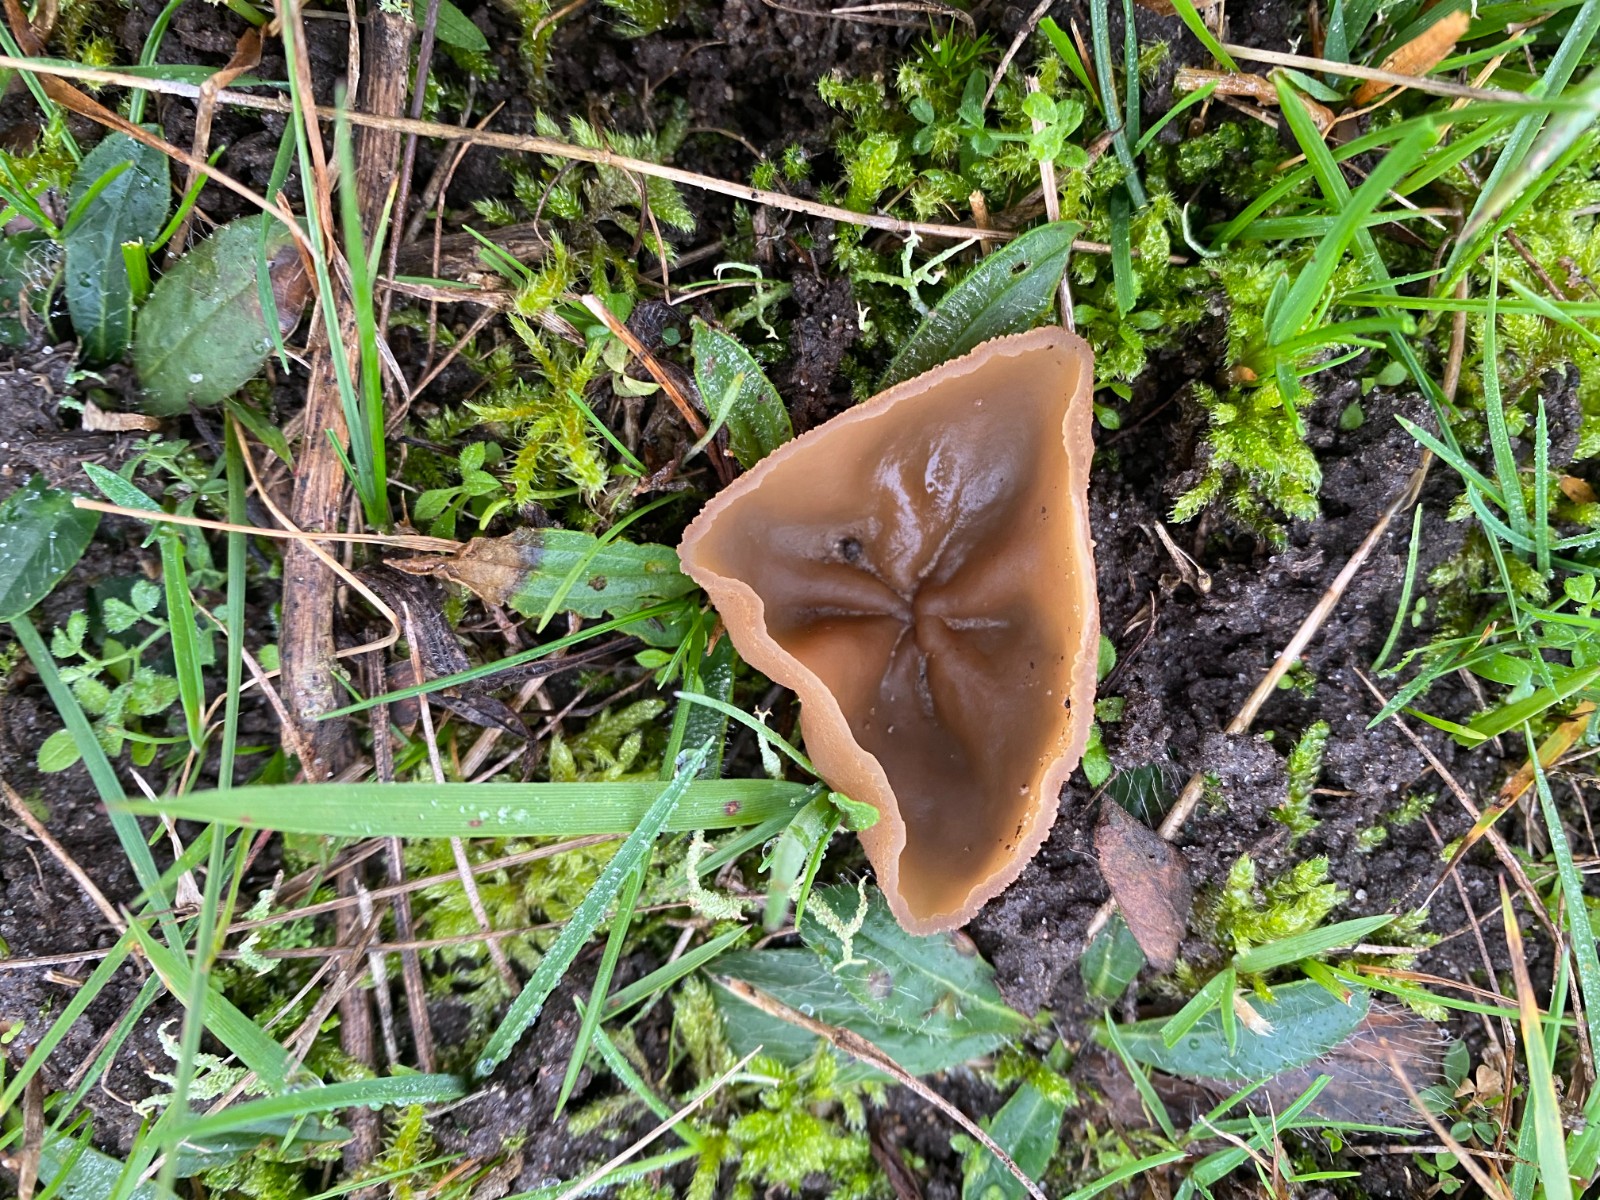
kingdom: Fungi
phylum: Ascomycota
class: Pezizomycetes
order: Pezizales
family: Pezizaceae
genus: Peziza
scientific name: Peziza
